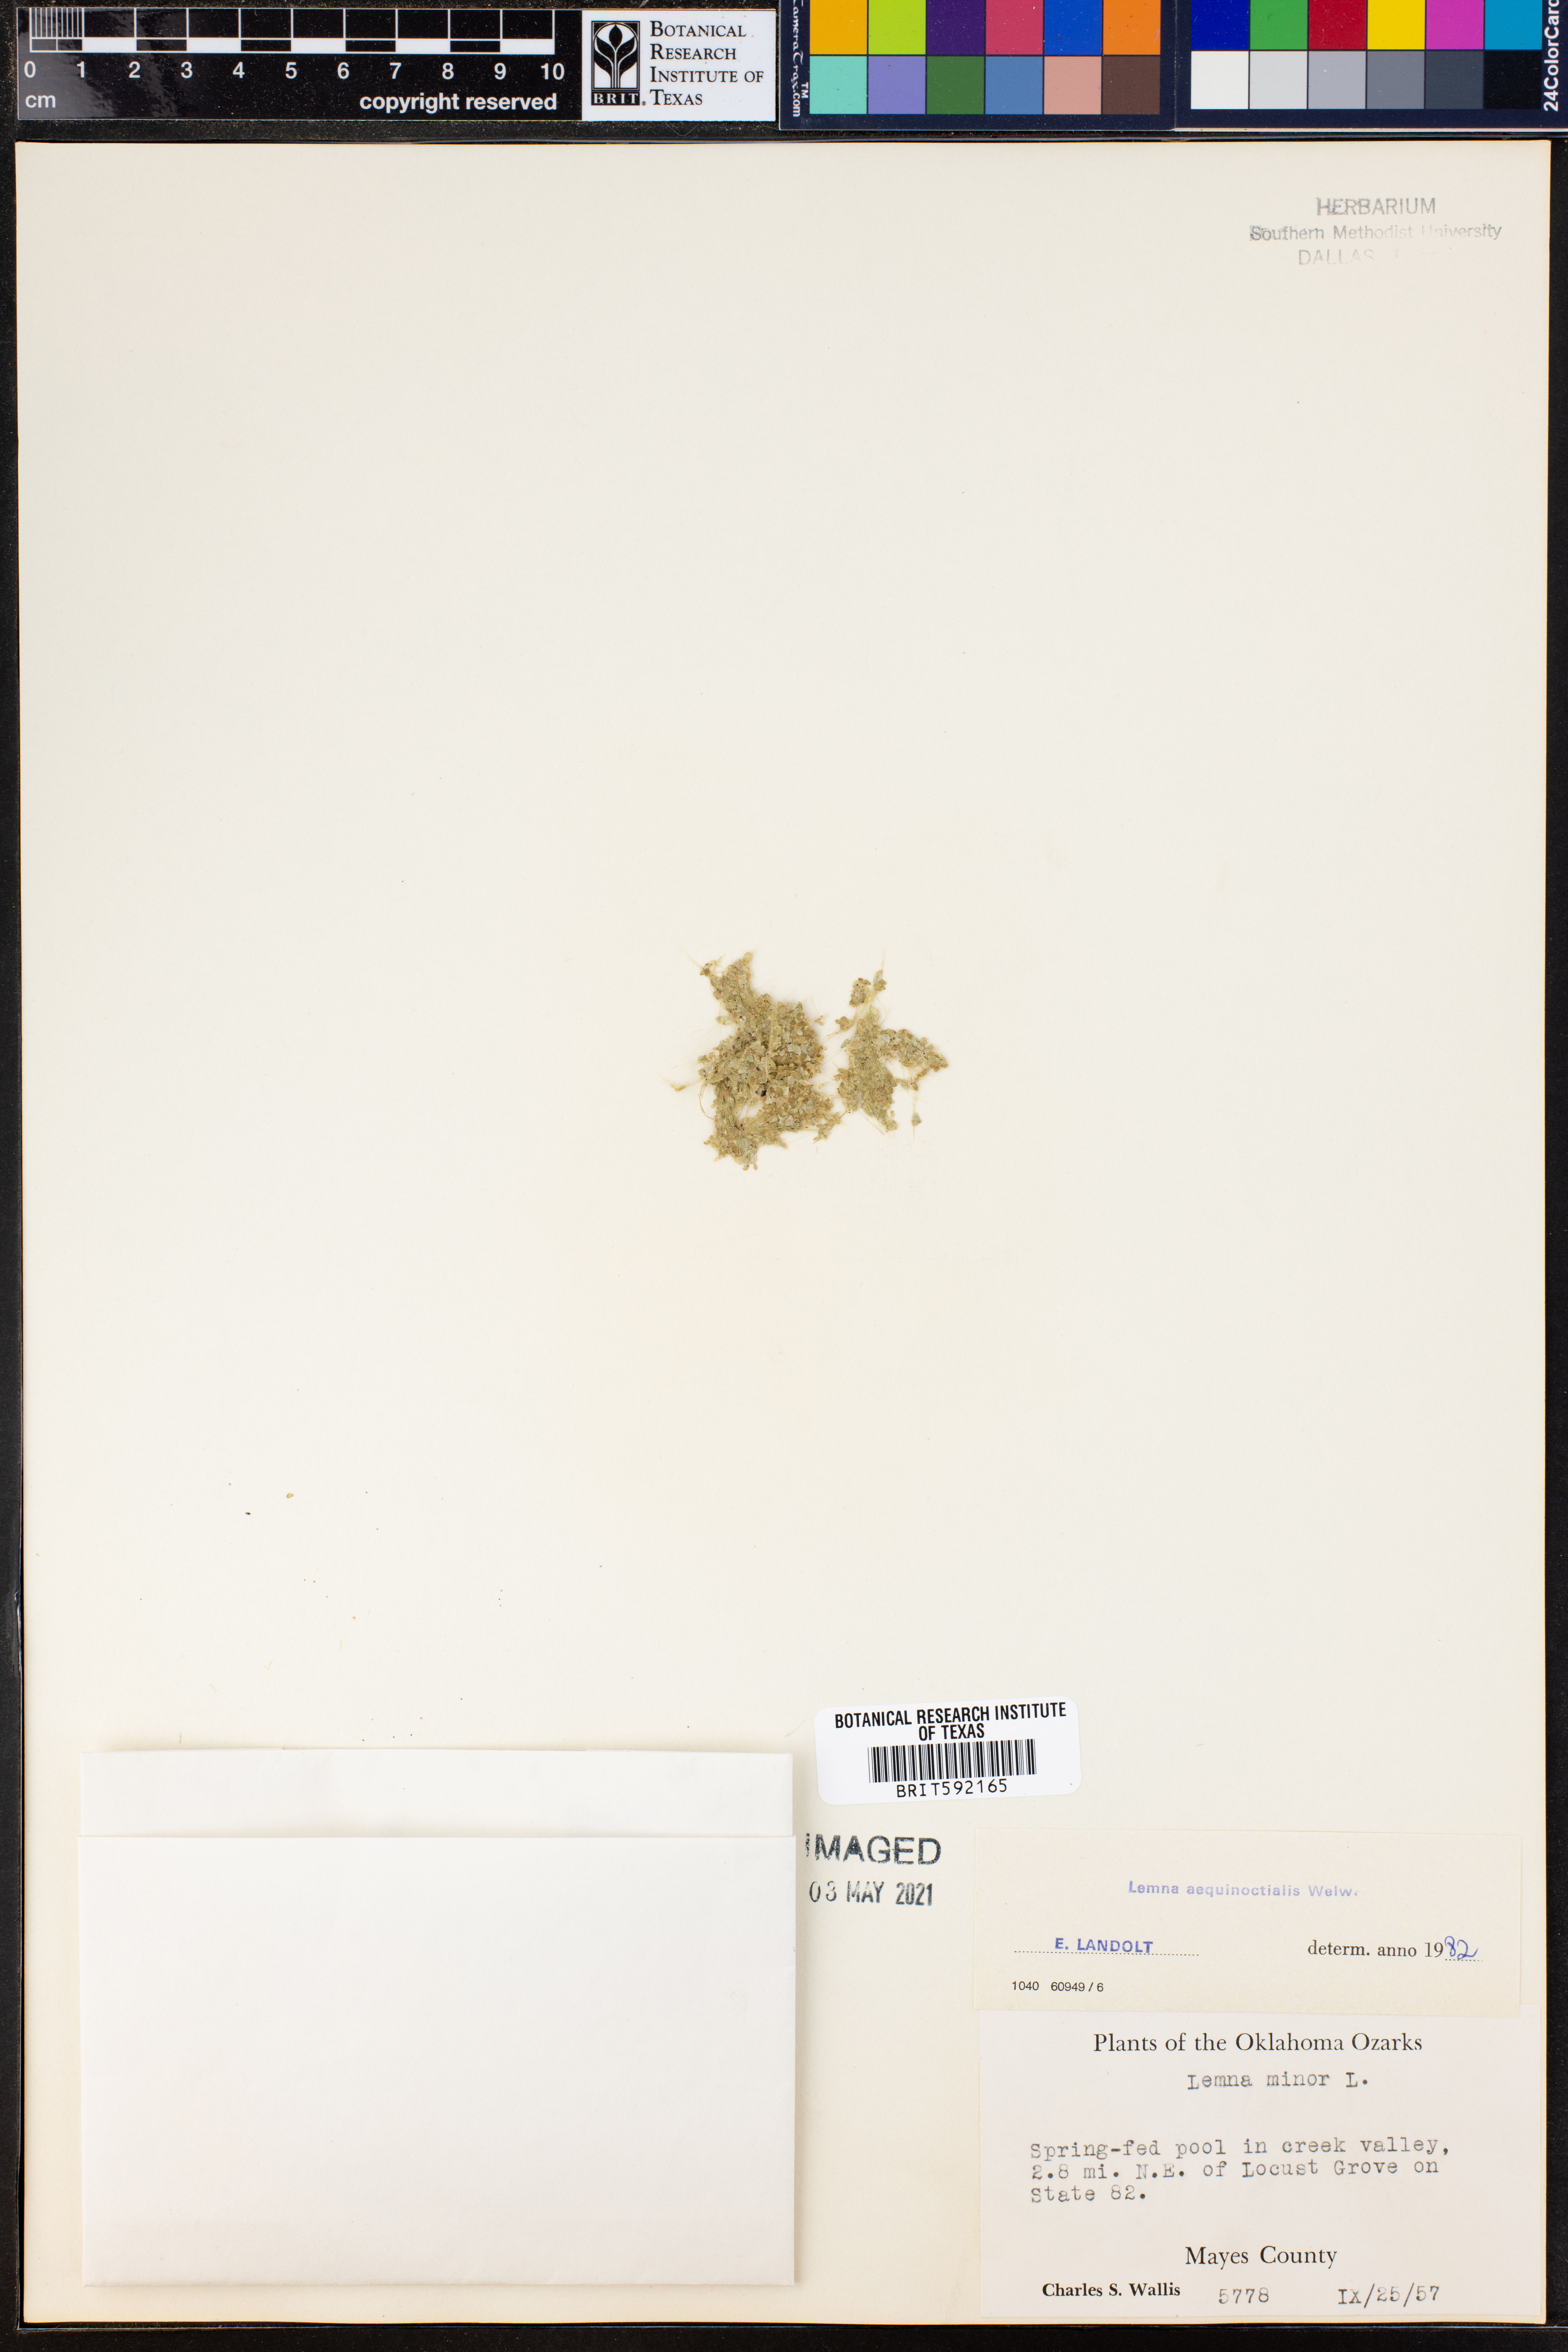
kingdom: Plantae
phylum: Tracheophyta
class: Liliopsida
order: Alismatales
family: Araceae
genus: Lemna
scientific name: Lemna aequinoctialis
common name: Duckweed
